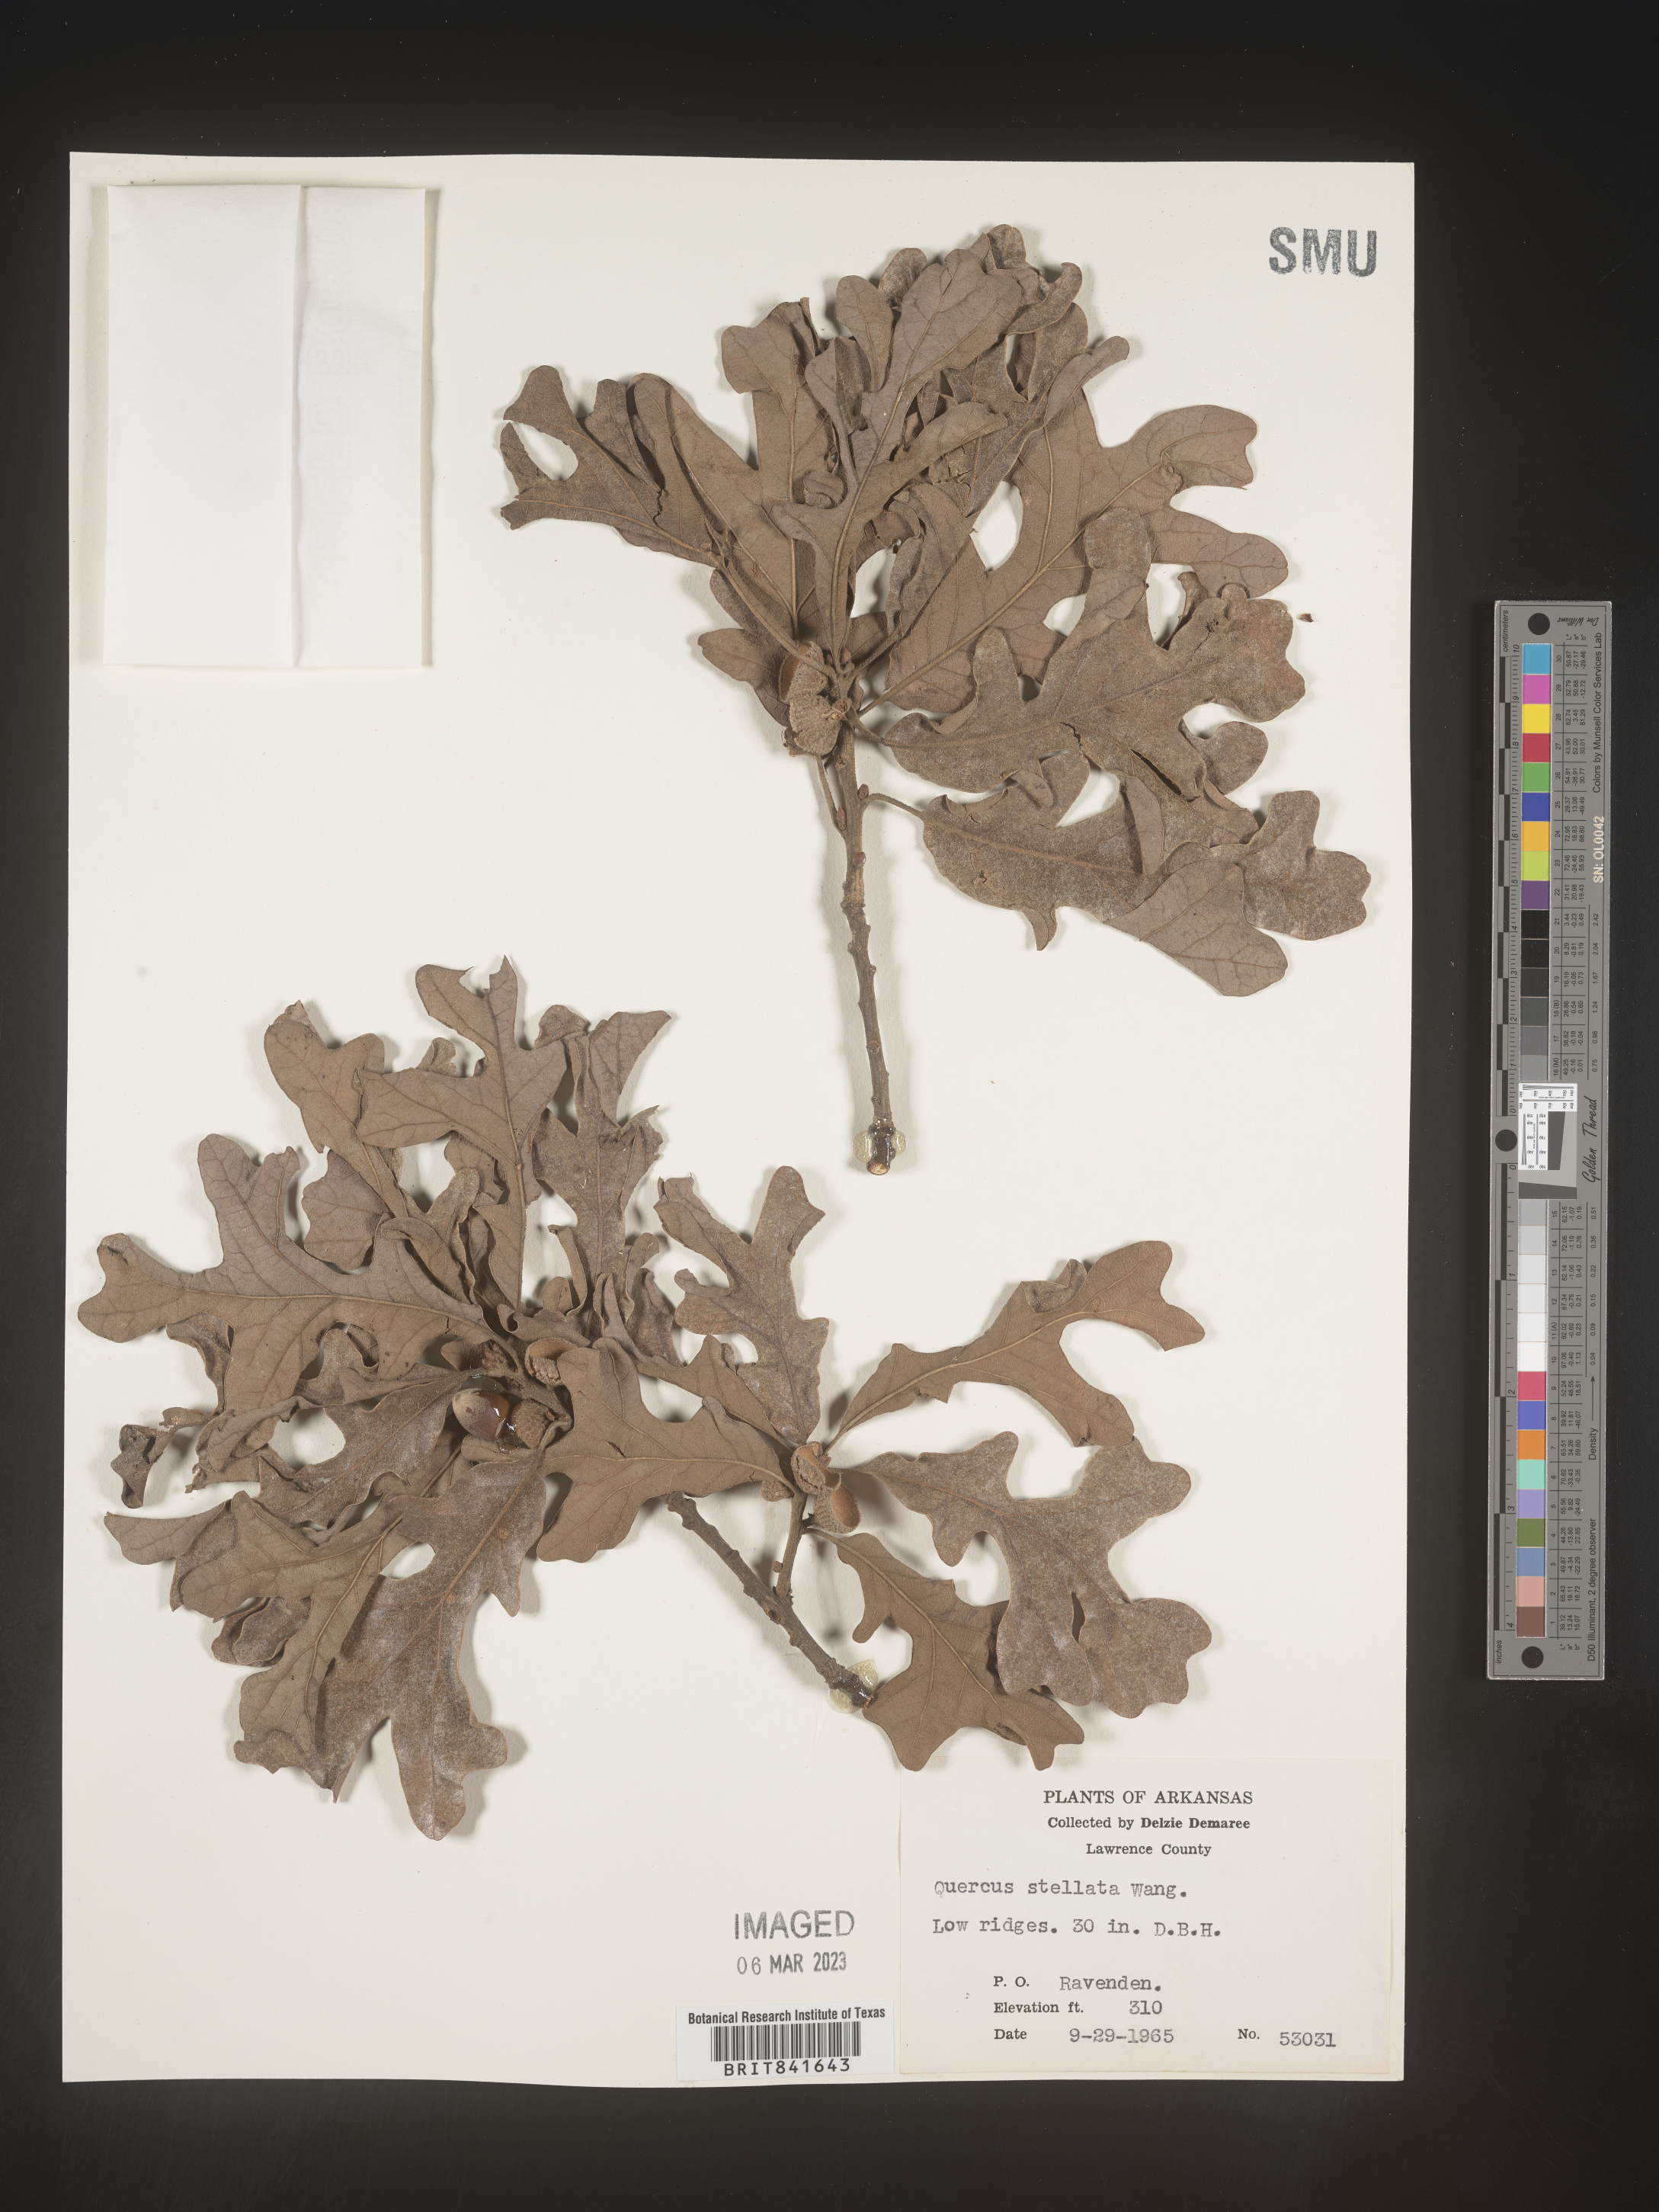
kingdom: Plantae
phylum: Tracheophyta
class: Magnoliopsida
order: Fagales
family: Fagaceae
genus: Quercus
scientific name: Quercus stellata
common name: Post oak
